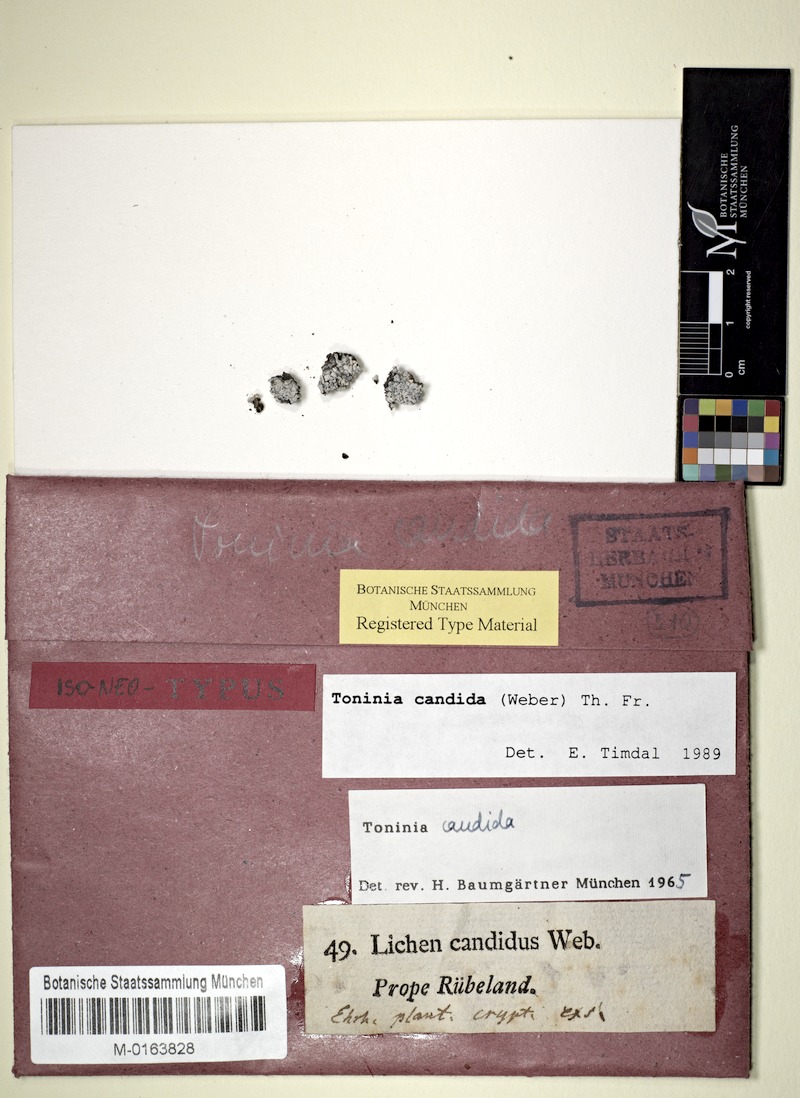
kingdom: Fungi
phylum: Ascomycota
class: Lecanoromycetes
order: Lecanorales
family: Ramalinaceae
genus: Thalloidima
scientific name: Thalloidima candidum
